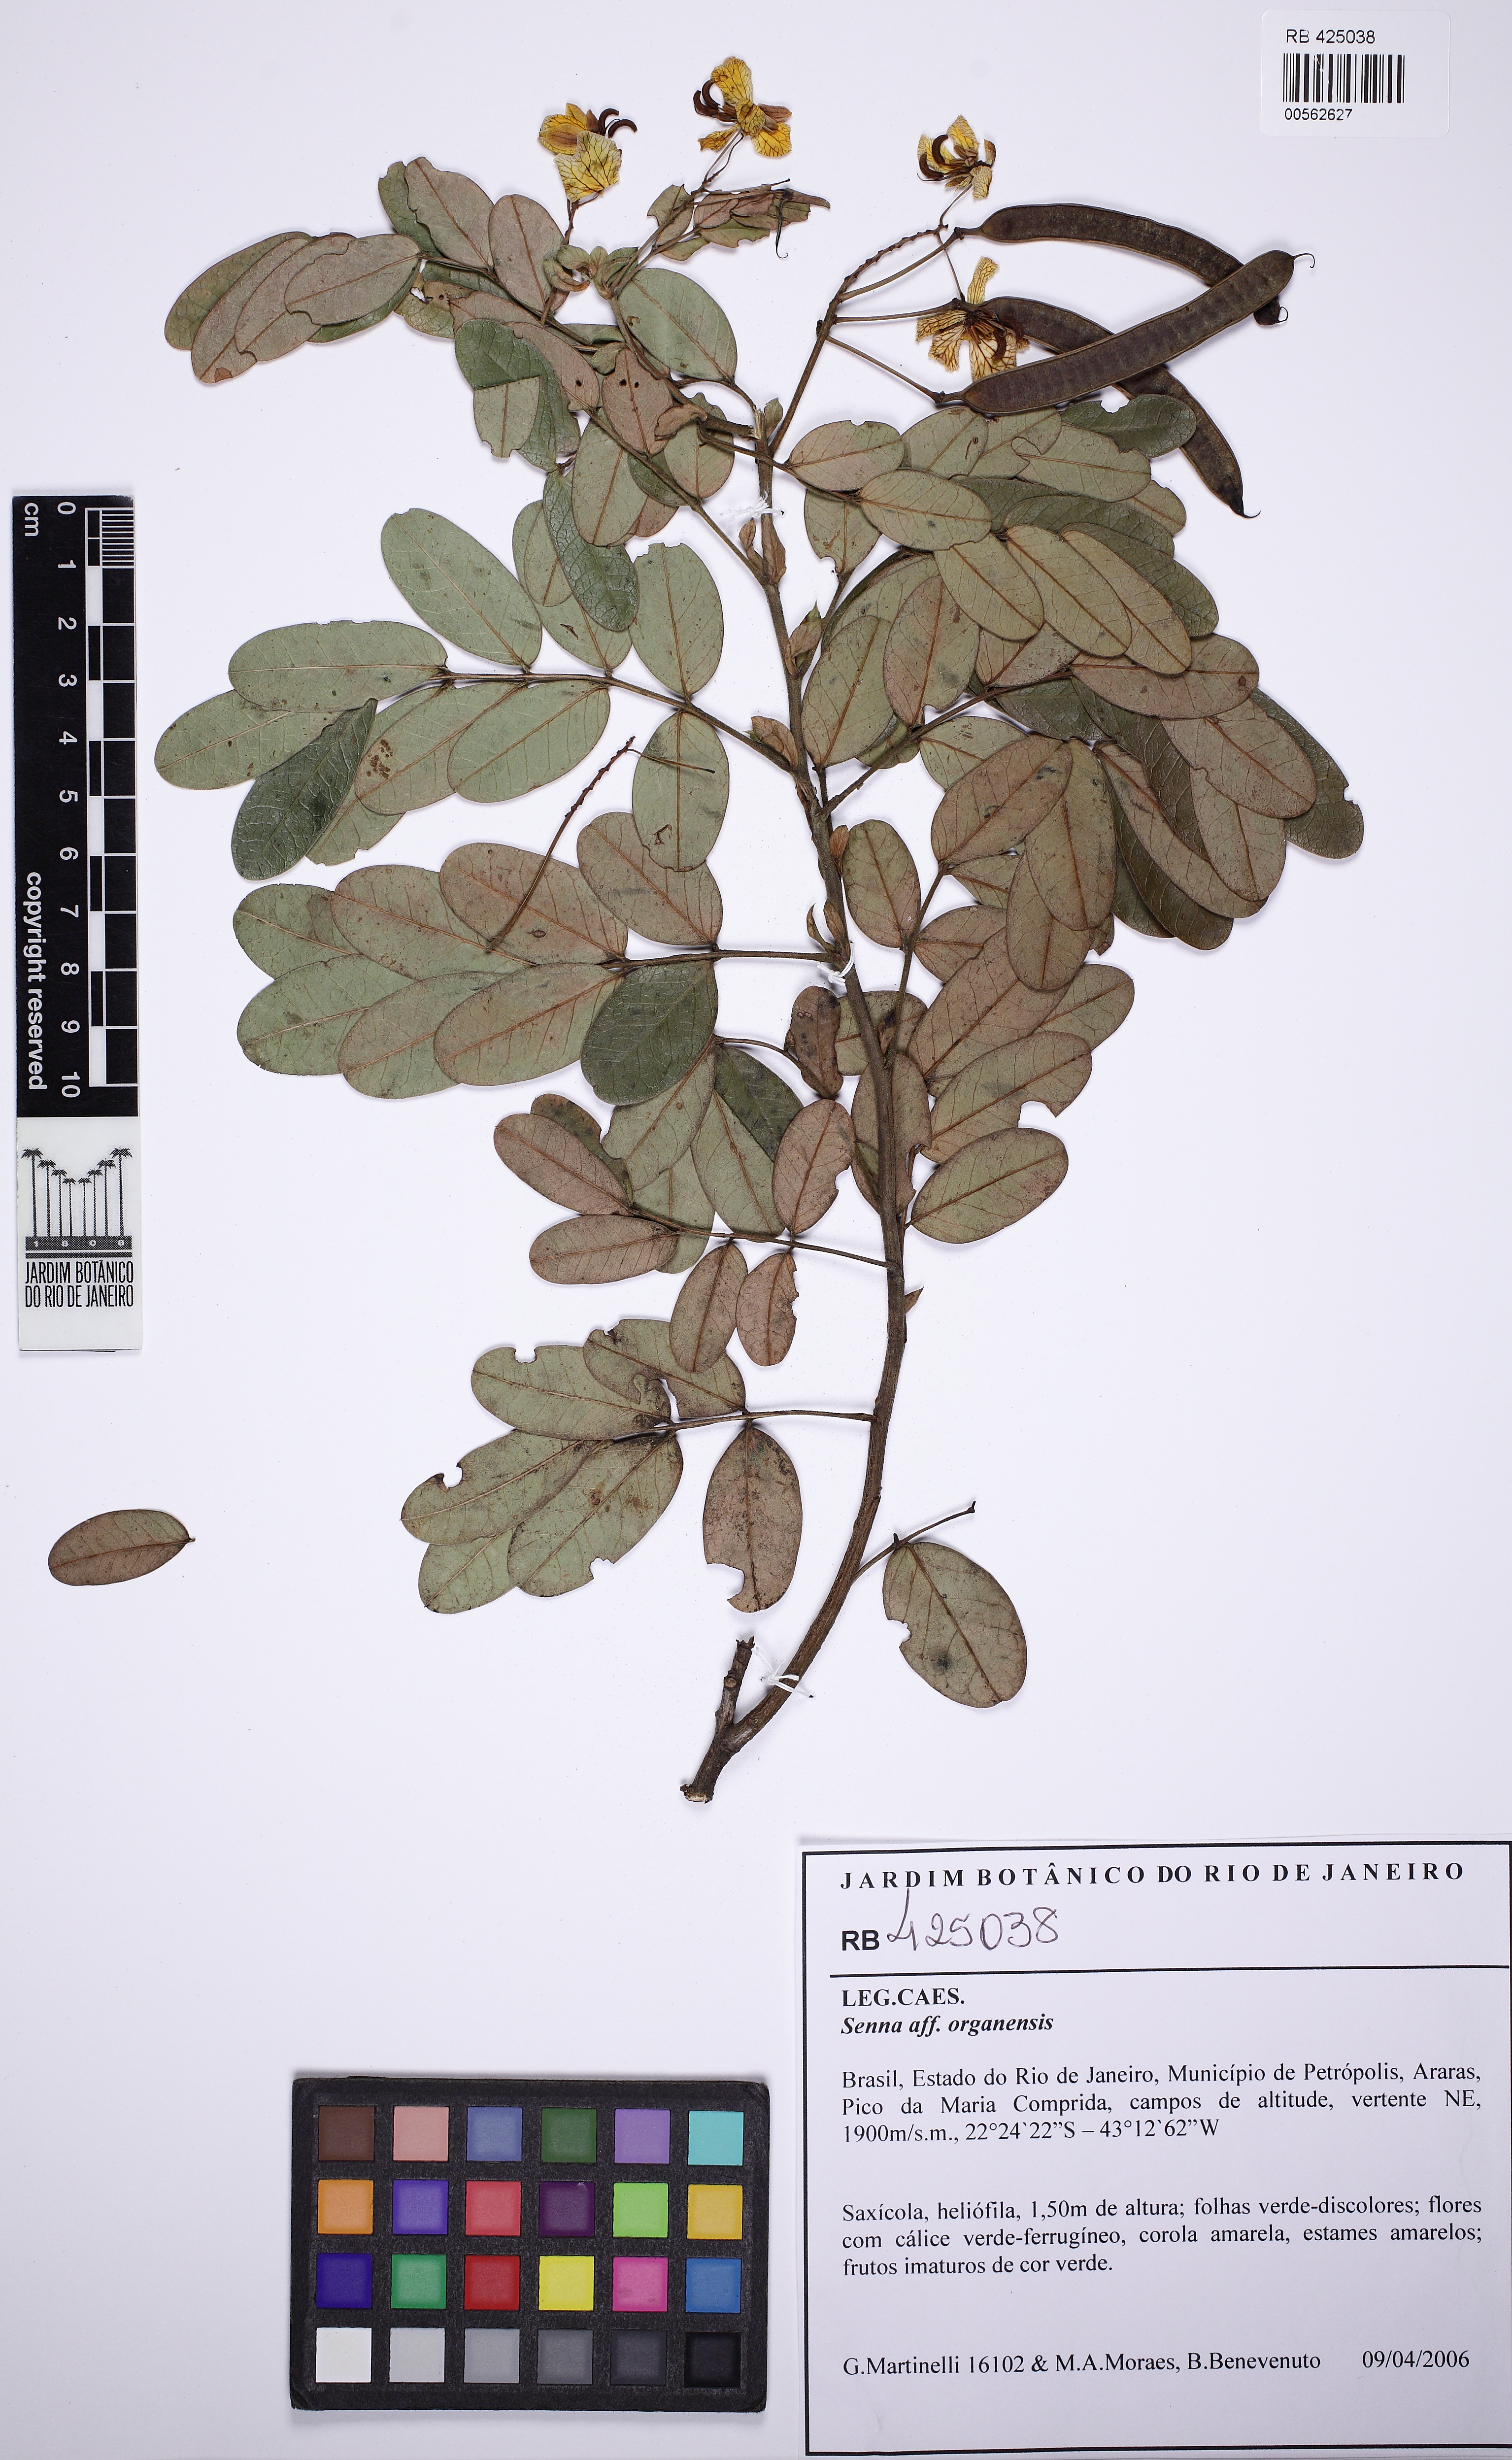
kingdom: Plantae
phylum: Tracheophyta
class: Magnoliopsida
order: Fabales
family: Fabaceae
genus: Senna
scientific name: Senna organensis
